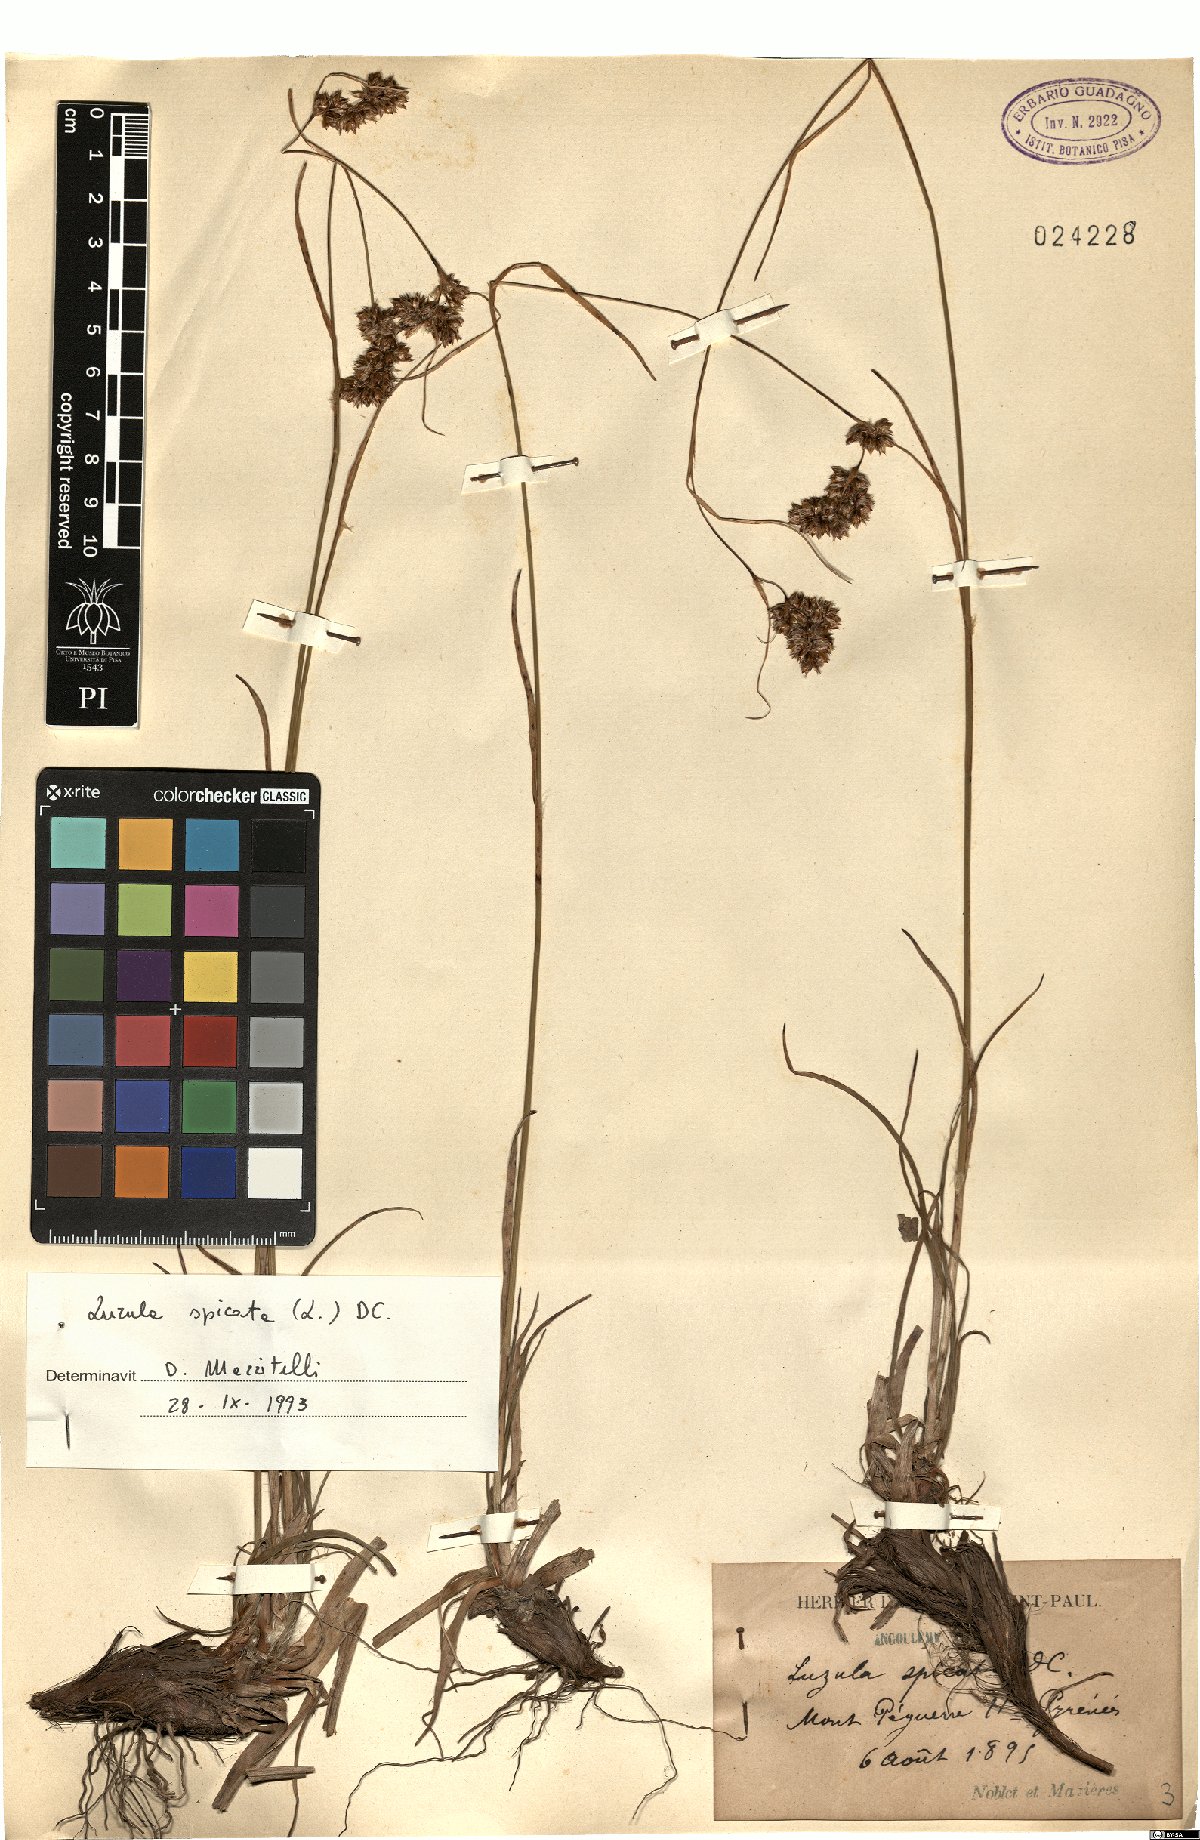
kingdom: Plantae
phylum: Tracheophyta
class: Liliopsida
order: Poales
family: Juncaceae
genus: Luzula
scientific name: Luzula spicata
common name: Spiked wood-rush
